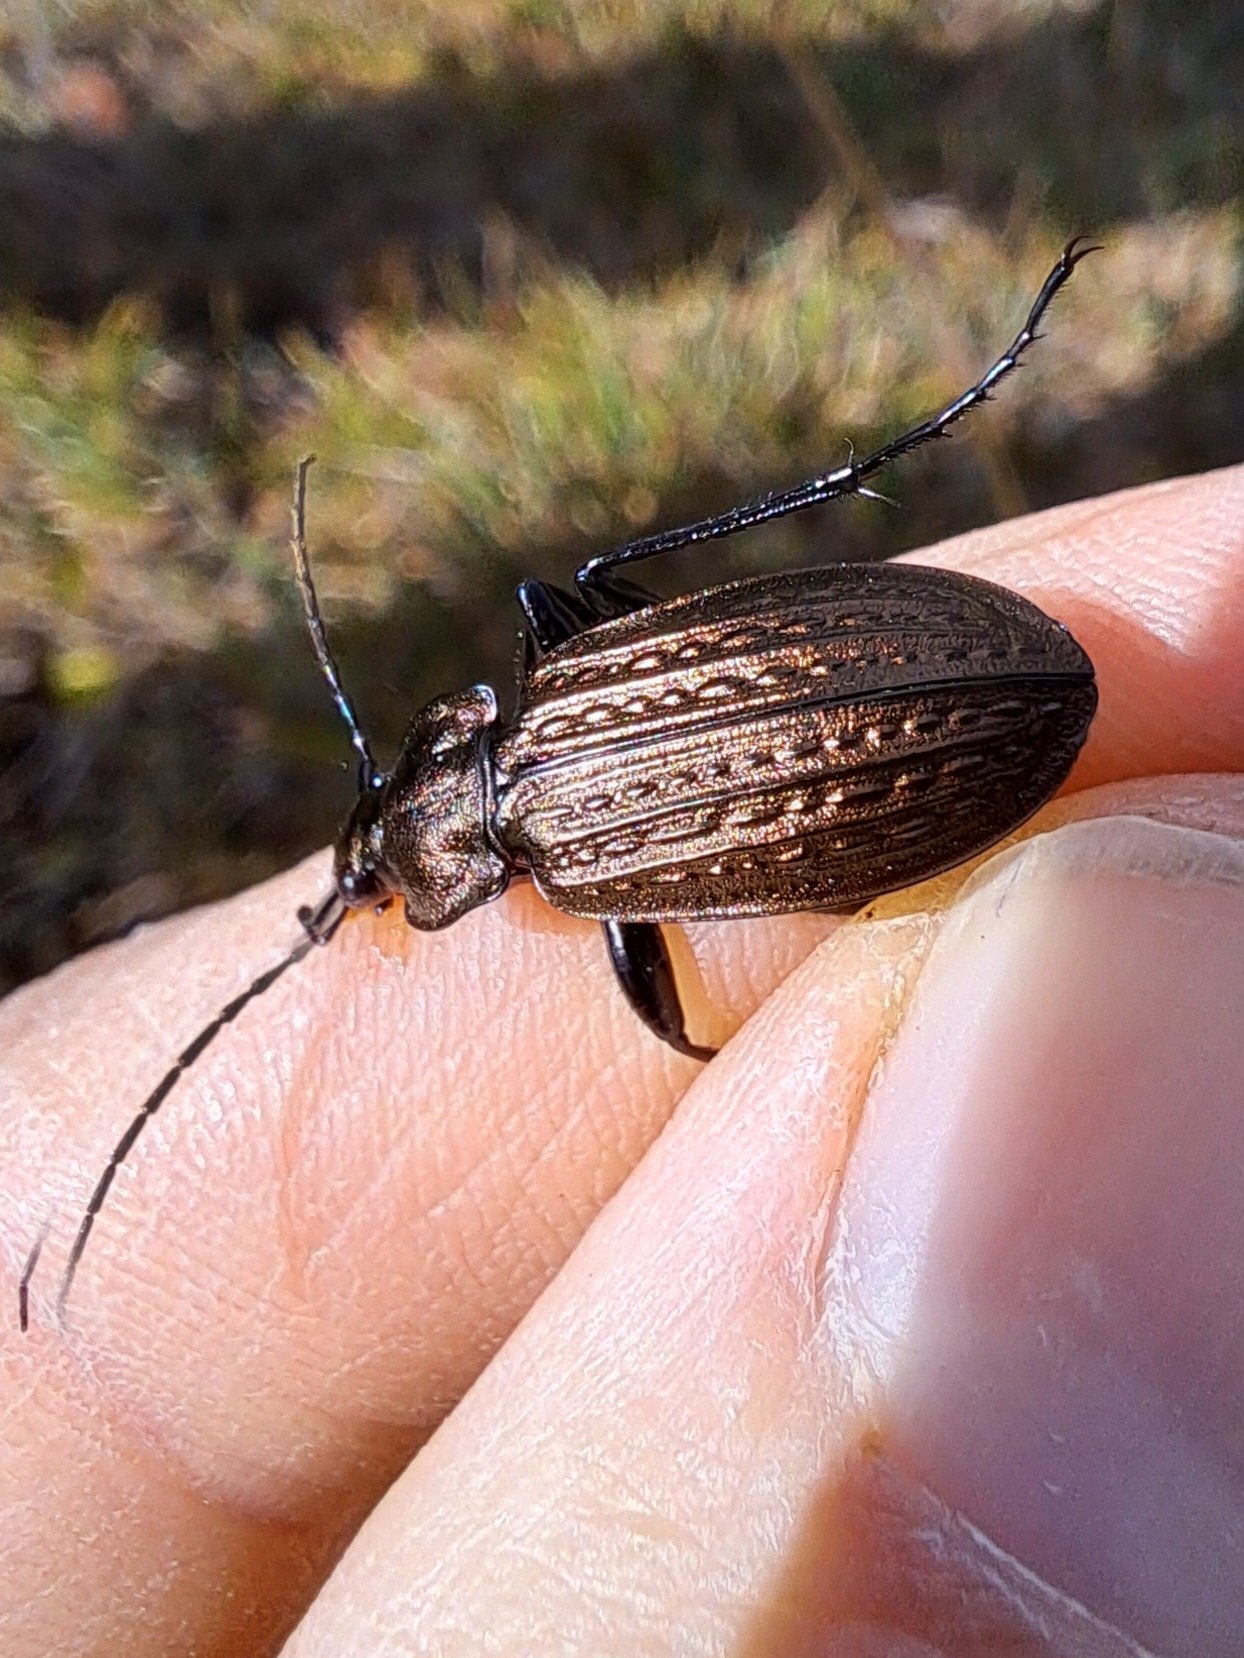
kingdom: Animalia
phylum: Arthropoda
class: Insecta
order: Coleoptera
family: Carabidae
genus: Carabus
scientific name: Carabus granulatus
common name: Kornet løber
